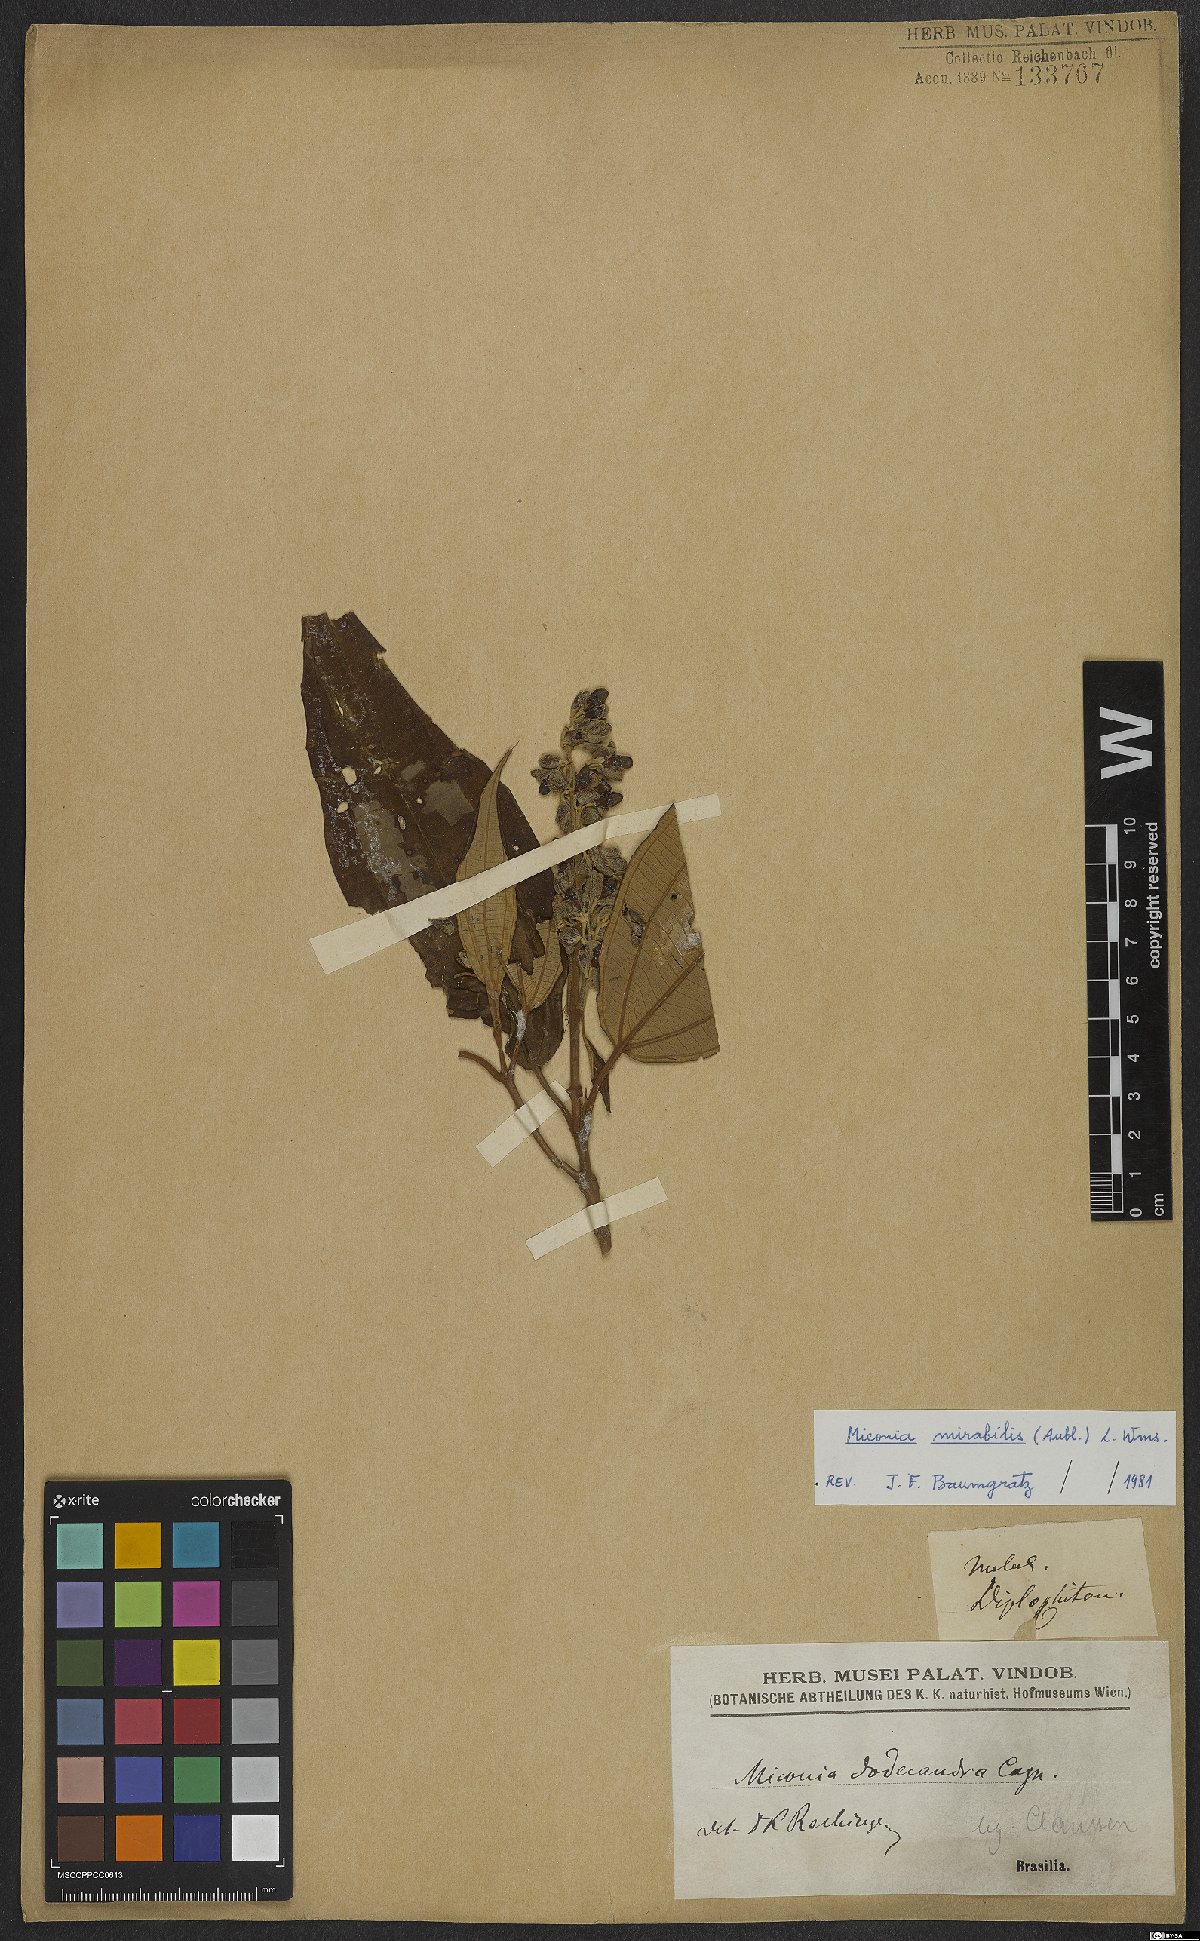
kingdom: Plantae
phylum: Tracheophyta
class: Magnoliopsida
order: Myrtales
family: Melastomataceae
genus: Miconia
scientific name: Miconia mirabilis
